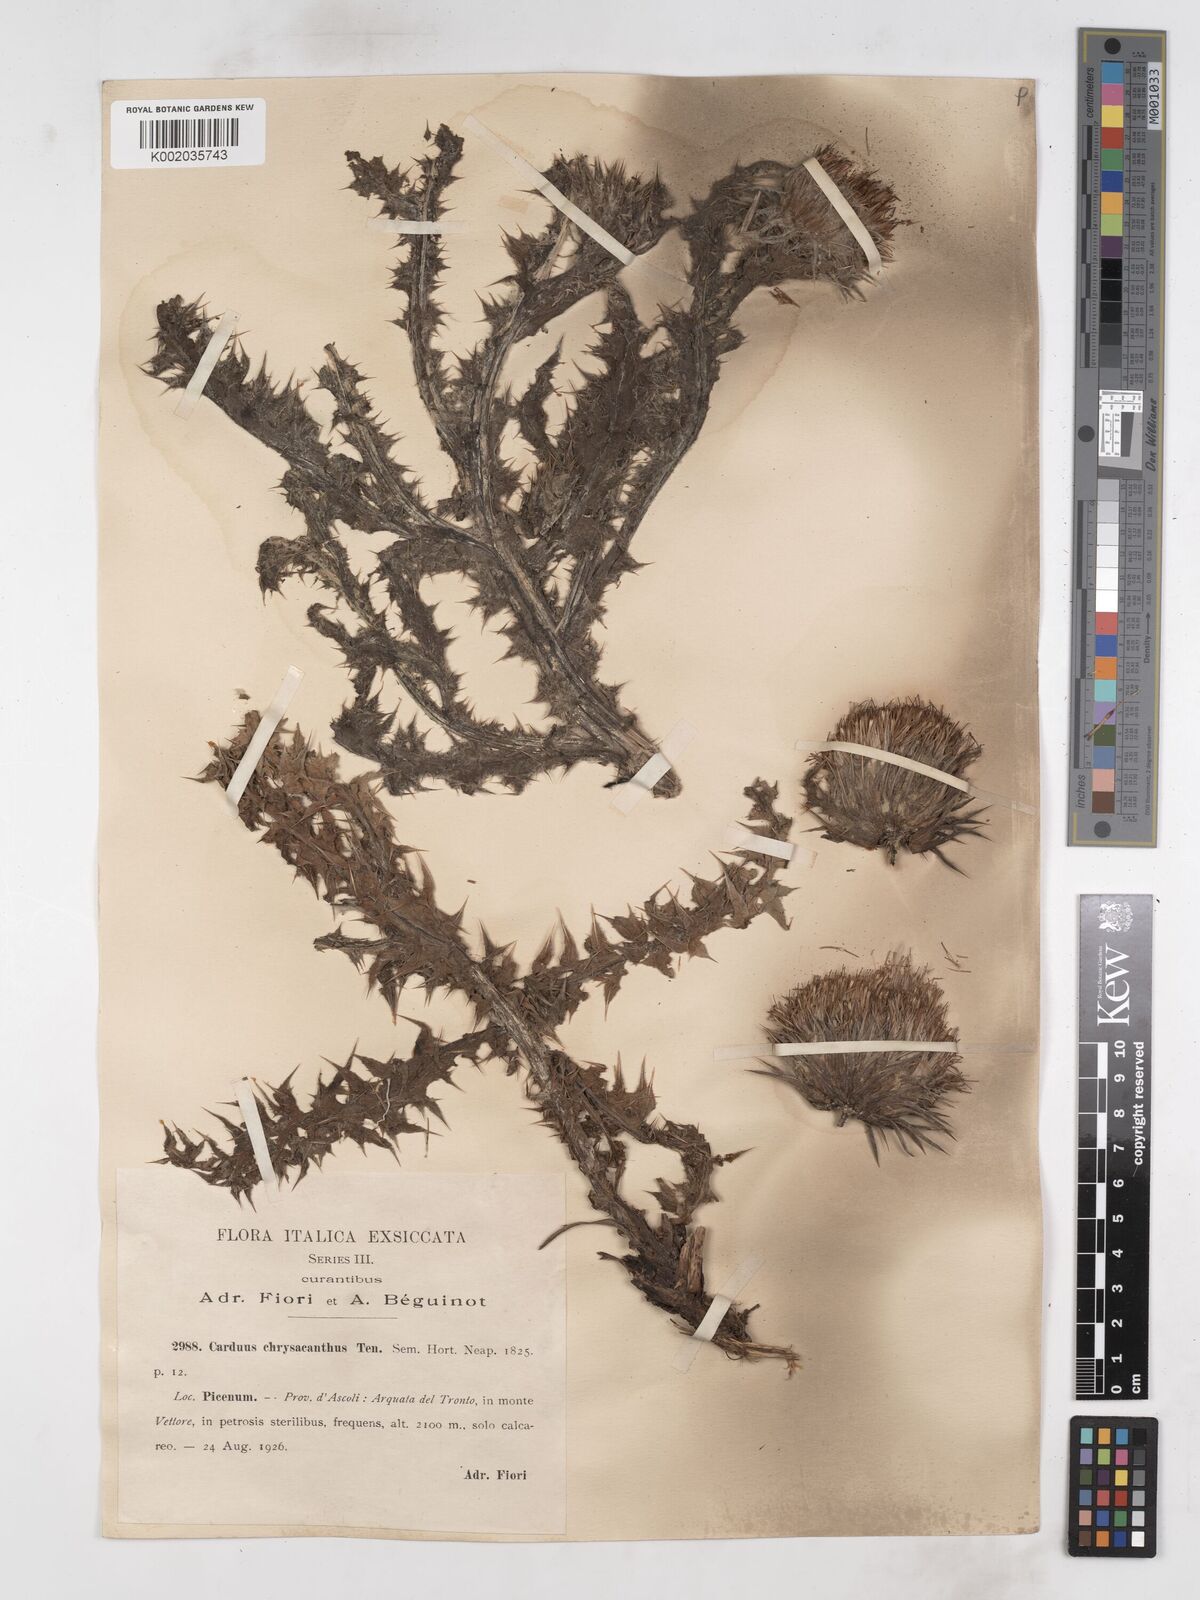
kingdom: Plantae
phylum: Tracheophyta
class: Magnoliopsida
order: Asterales
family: Asteraceae
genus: Carduus
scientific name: Carduus chrysacanthus
